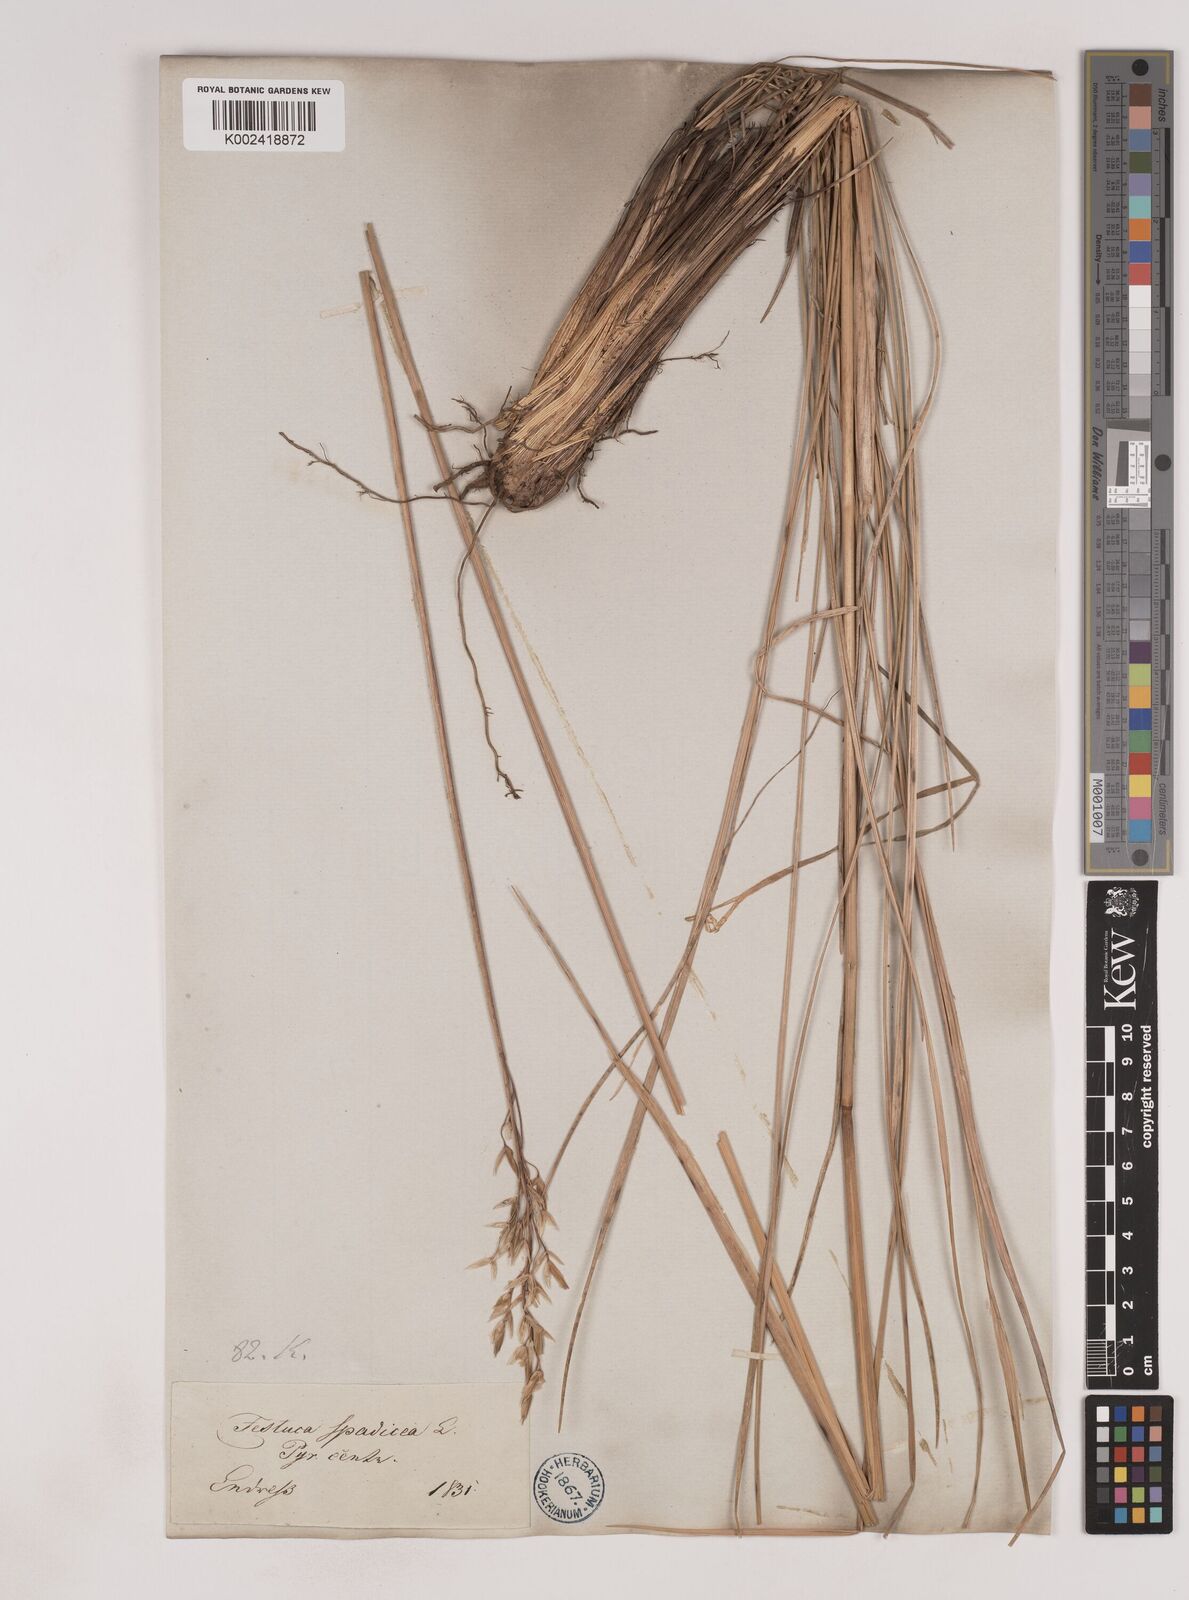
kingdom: Plantae
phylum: Tracheophyta
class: Liliopsida
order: Poales
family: Poaceae
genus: Patzkea
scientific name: Patzkea paniculata
